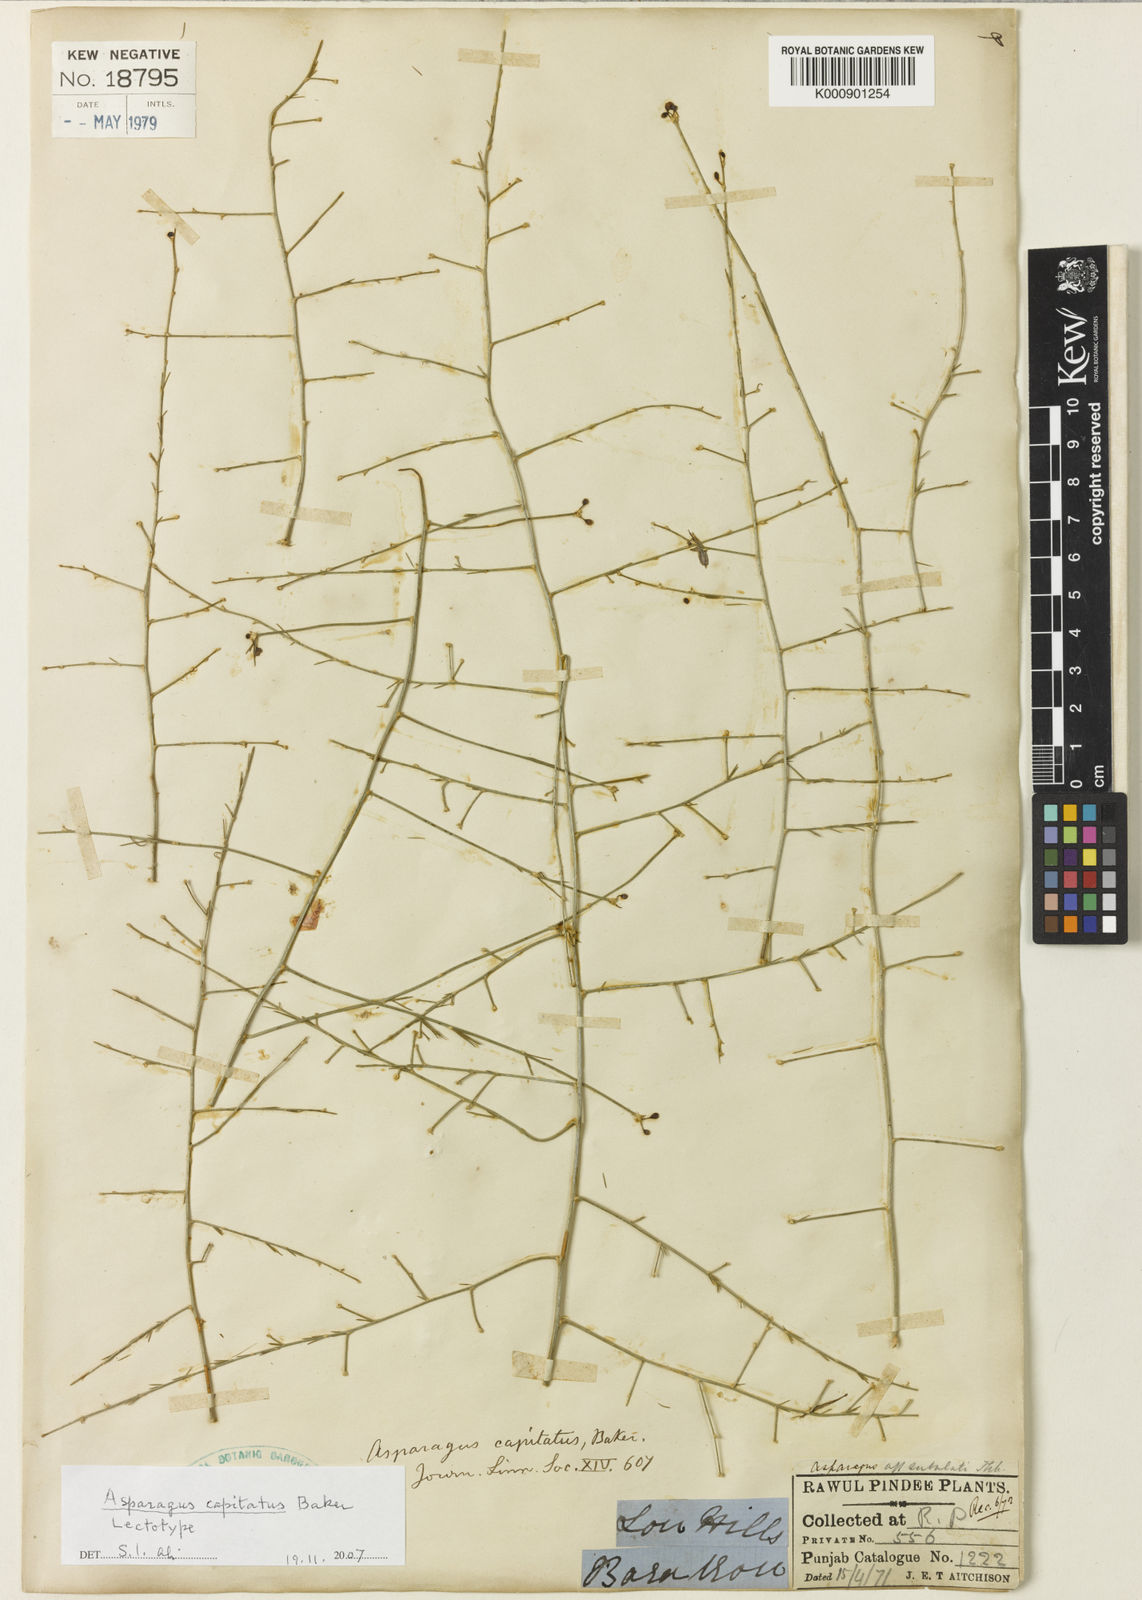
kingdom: Plantae
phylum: Tracheophyta
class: Liliopsida
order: Asparagales
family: Asparagaceae
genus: Asparagus
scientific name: Asparagus capitatus
